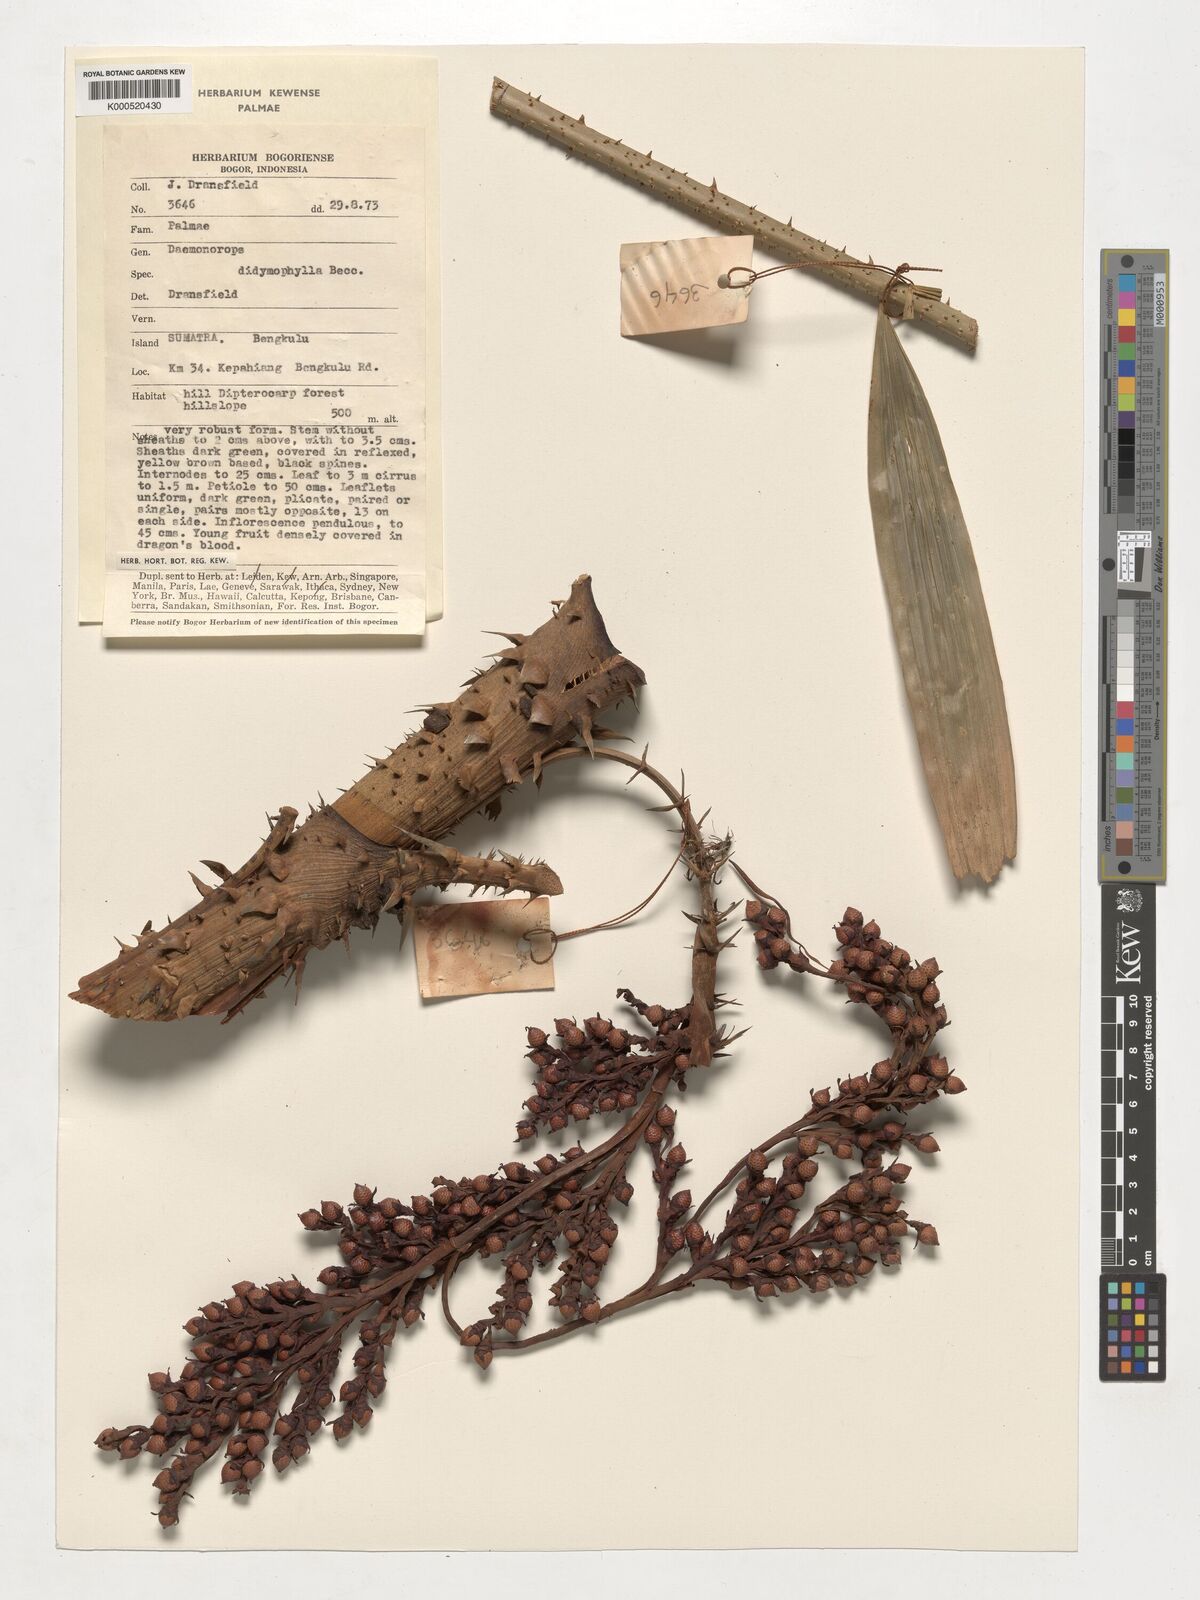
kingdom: Plantae
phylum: Tracheophyta
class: Liliopsida
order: Arecales
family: Arecaceae
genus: Calamus
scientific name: Calamus gracilipes
